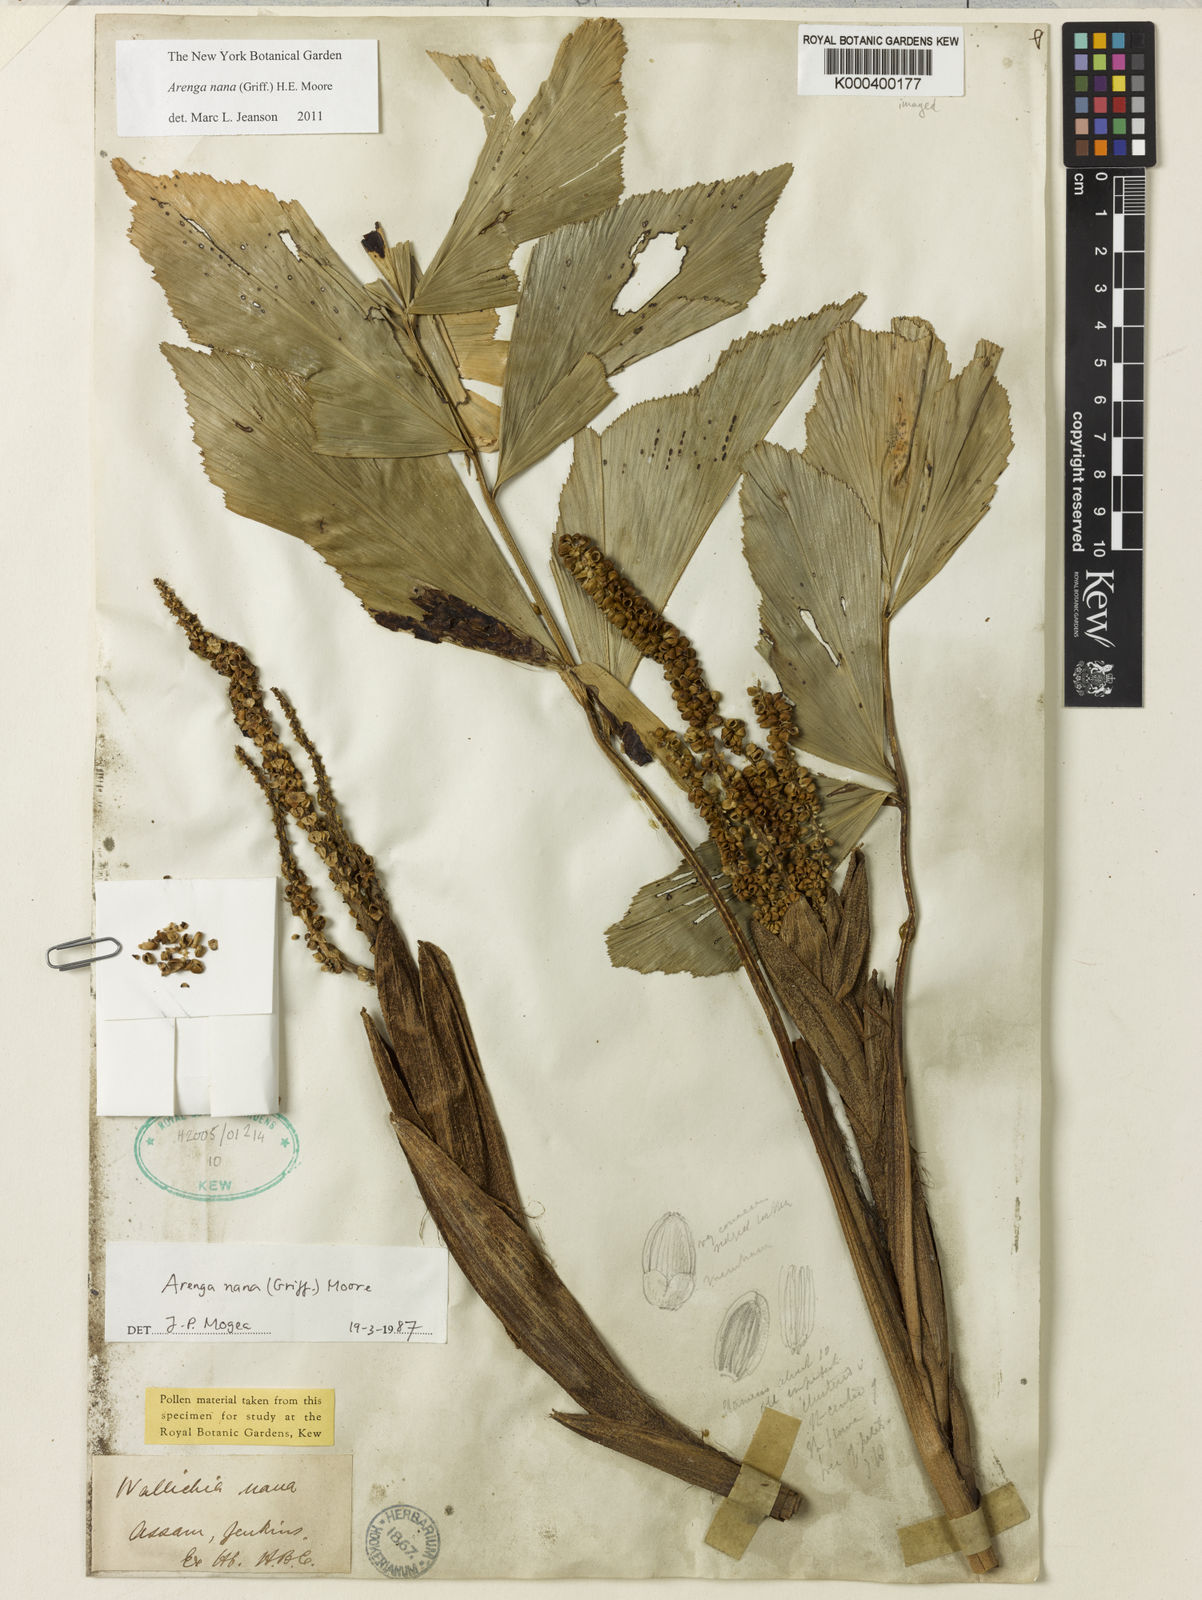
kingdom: Plantae
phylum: Tracheophyta
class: Liliopsida
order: Arecales
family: Arecaceae
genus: Wallichia
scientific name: Wallichia nana
